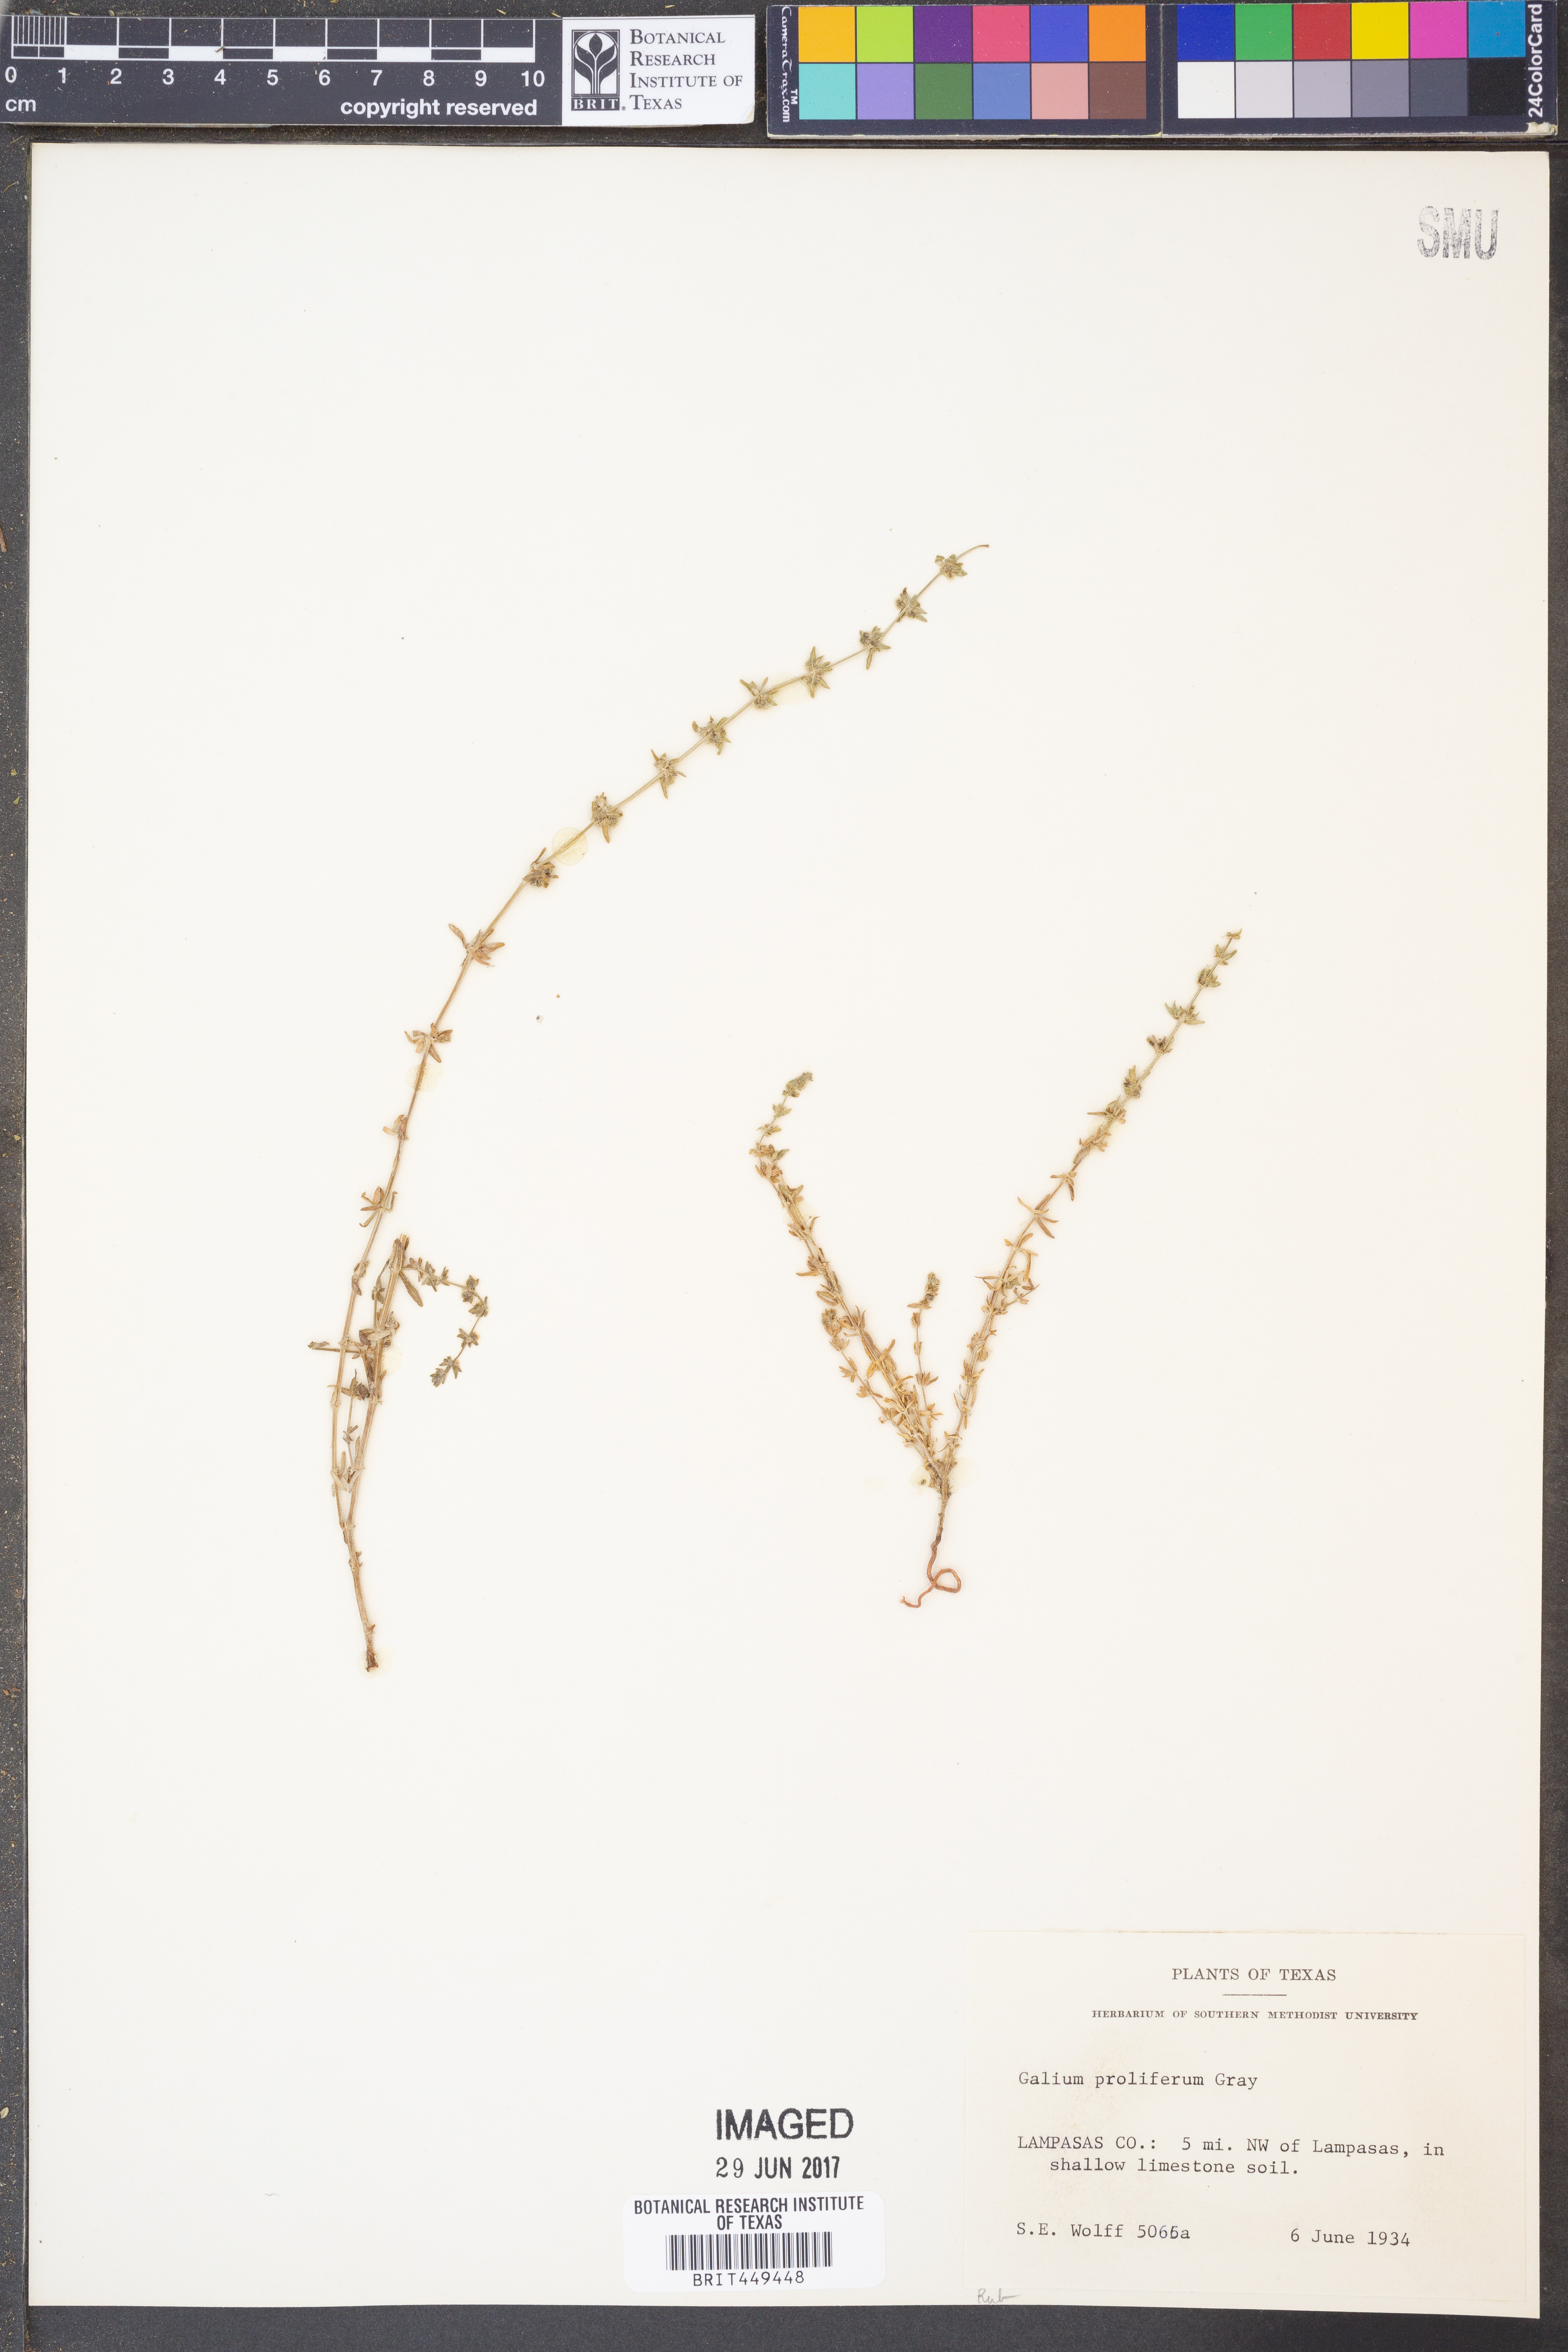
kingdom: Plantae
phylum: Tracheophyta
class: Magnoliopsida
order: Gentianales
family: Rubiaceae
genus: Galium
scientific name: Galium proliferum
